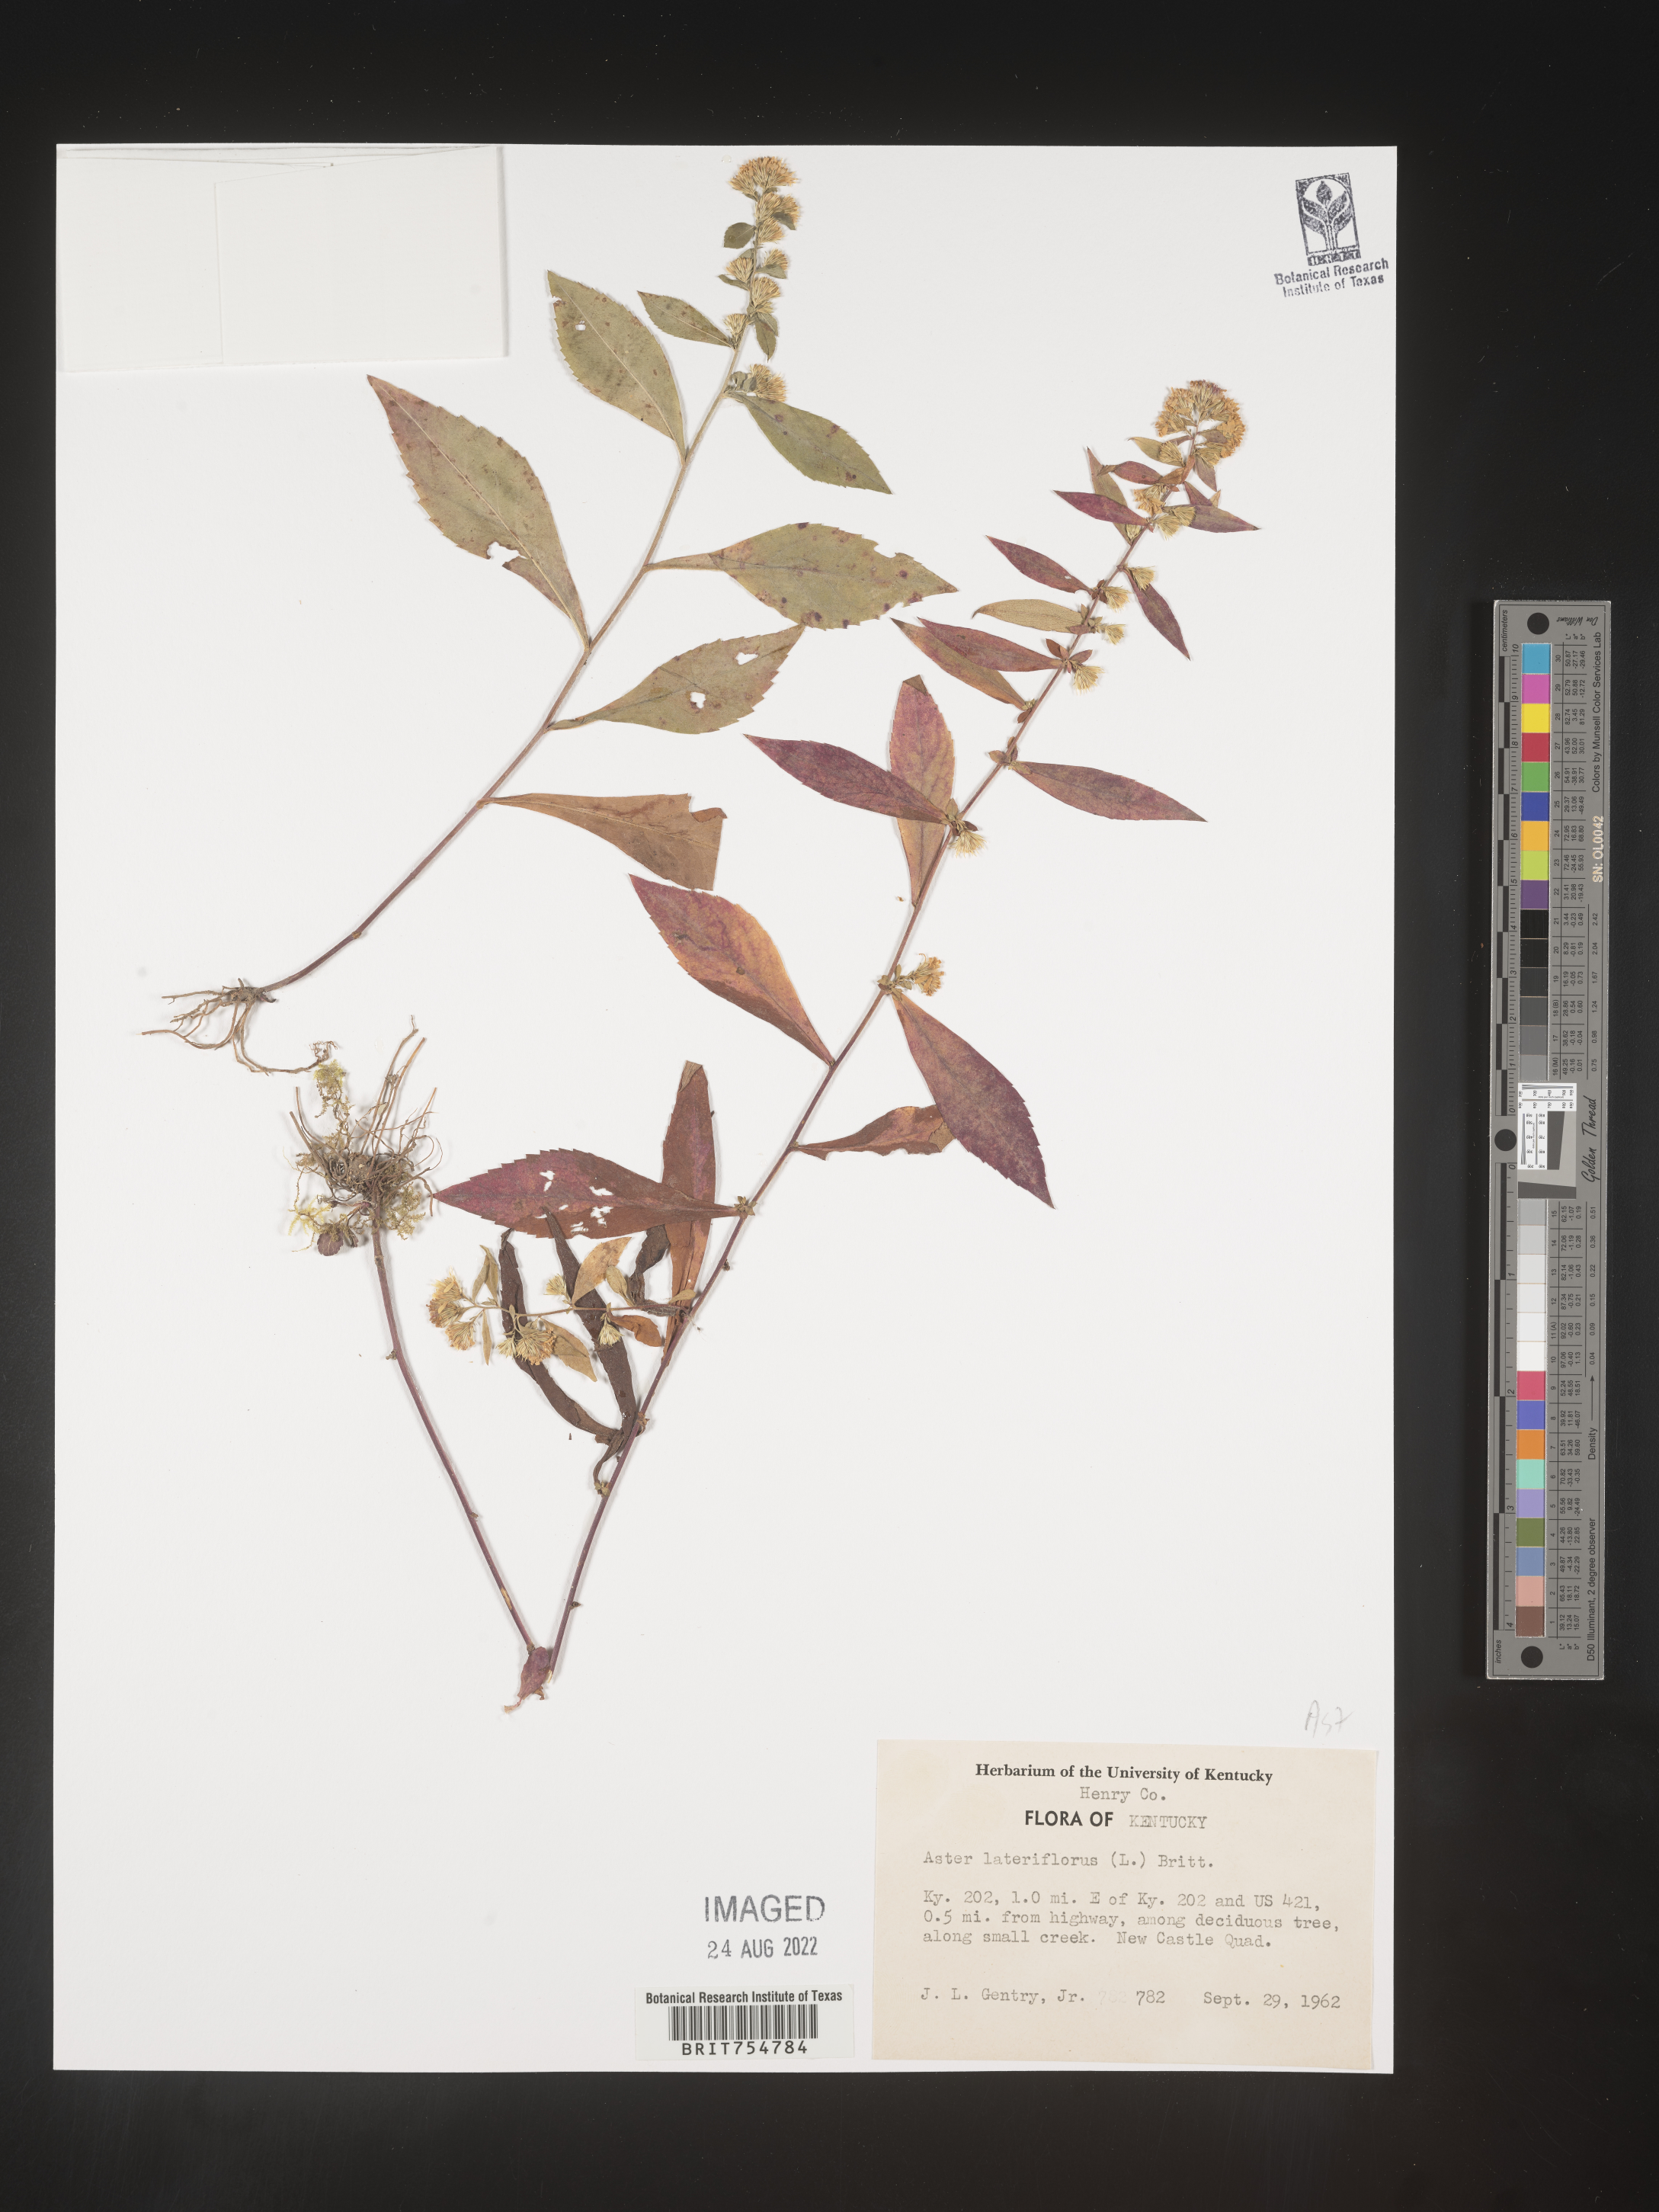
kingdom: Plantae
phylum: Tracheophyta
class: Magnoliopsida
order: Asterales
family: Asteraceae
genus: Symphyotrichum
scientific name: Symphyotrichum
